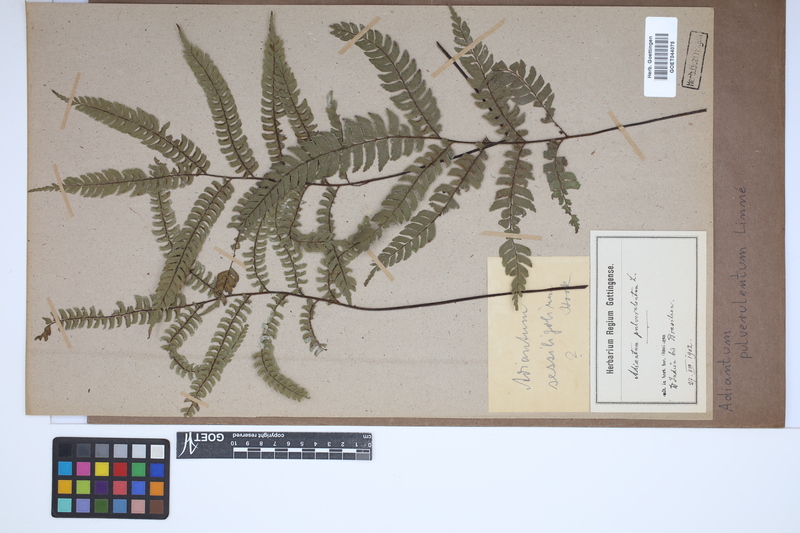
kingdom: Plantae
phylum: Tracheophyta
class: Polypodiopsida
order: Polypodiales
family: Pteridaceae
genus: Adiantum
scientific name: Adiantum pulverulentum
